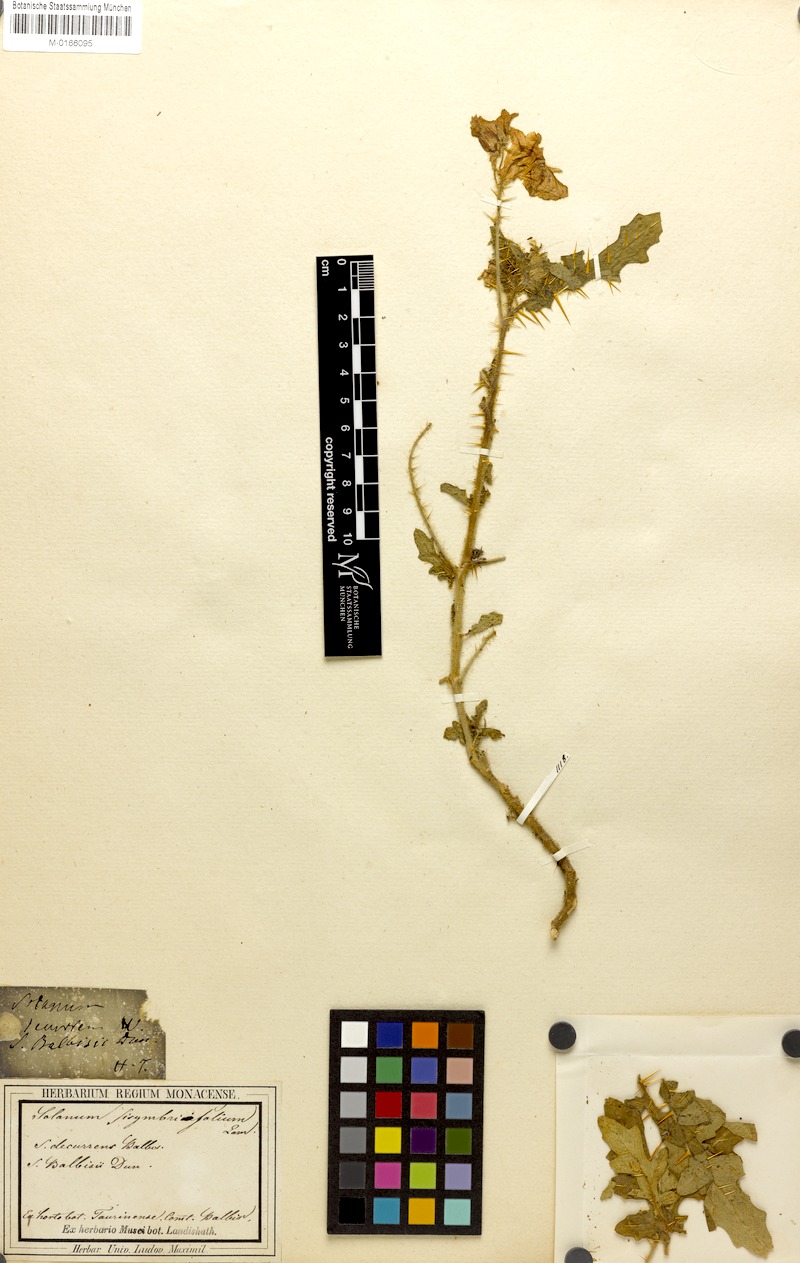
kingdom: Plantae
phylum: Tracheophyta
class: Magnoliopsida
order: Solanales
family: Solanaceae
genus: Solanum
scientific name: Solanum sisymbriifolium
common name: Red buffalo-bur
